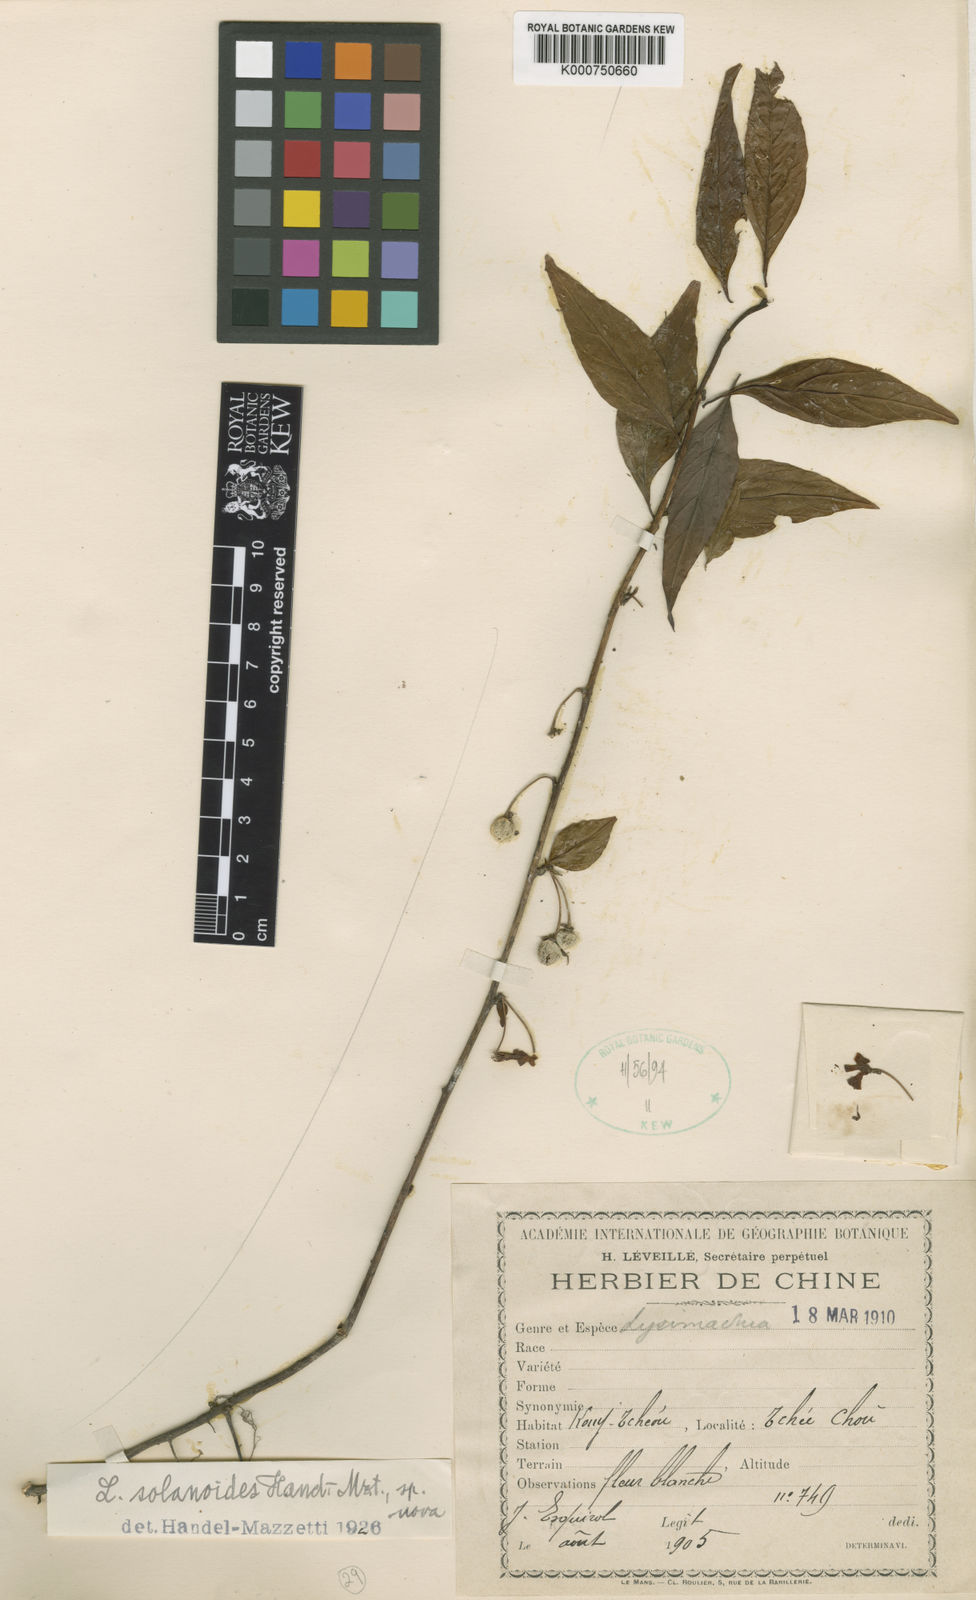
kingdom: Plantae
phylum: Tracheophyta
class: Magnoliopsida
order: Ericales
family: Primulaceae
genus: Lysimachia
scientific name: Lysimachia navillei
